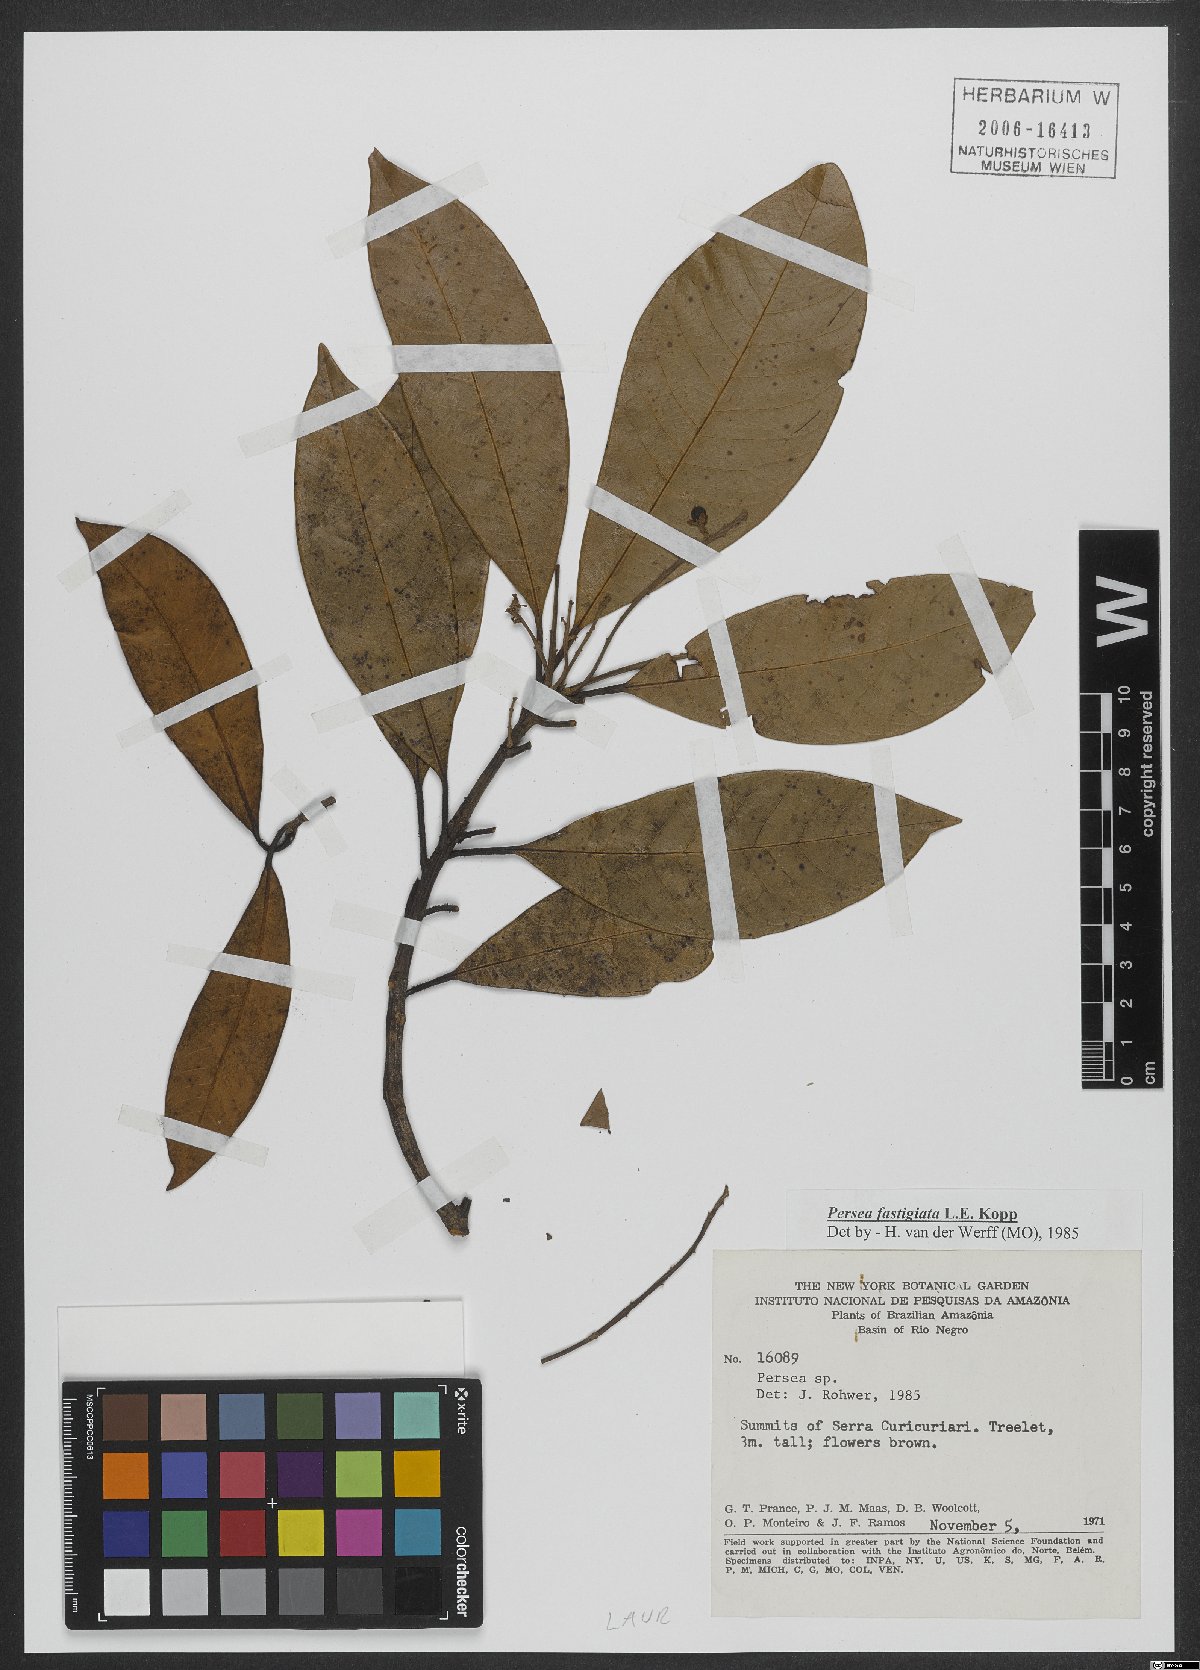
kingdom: Plantae
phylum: Tracheophyta
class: Magnoliopsida
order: Laurales
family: Lauraceae
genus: Persea
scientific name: Persea fastigiata
